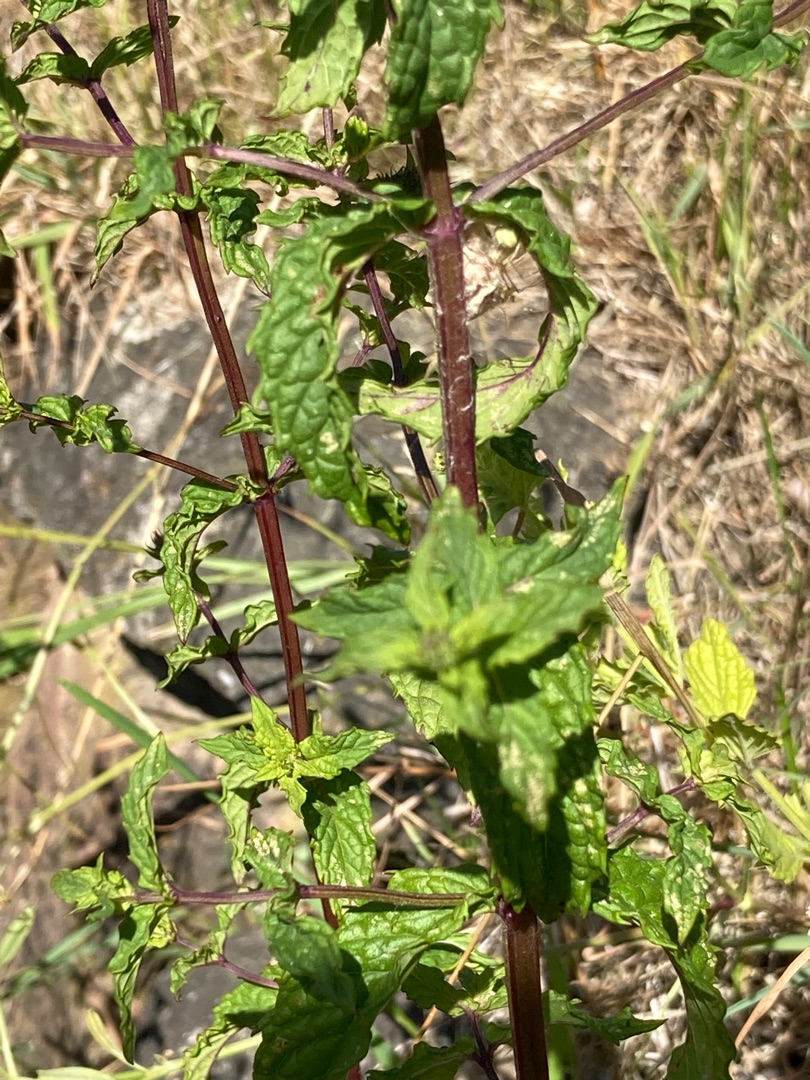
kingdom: Plantae
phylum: Tracheophyta
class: Magnoliopsida
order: Lamiales
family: Lamiaceae
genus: Mentha
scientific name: Mentha spicata
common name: Grøn mynte
